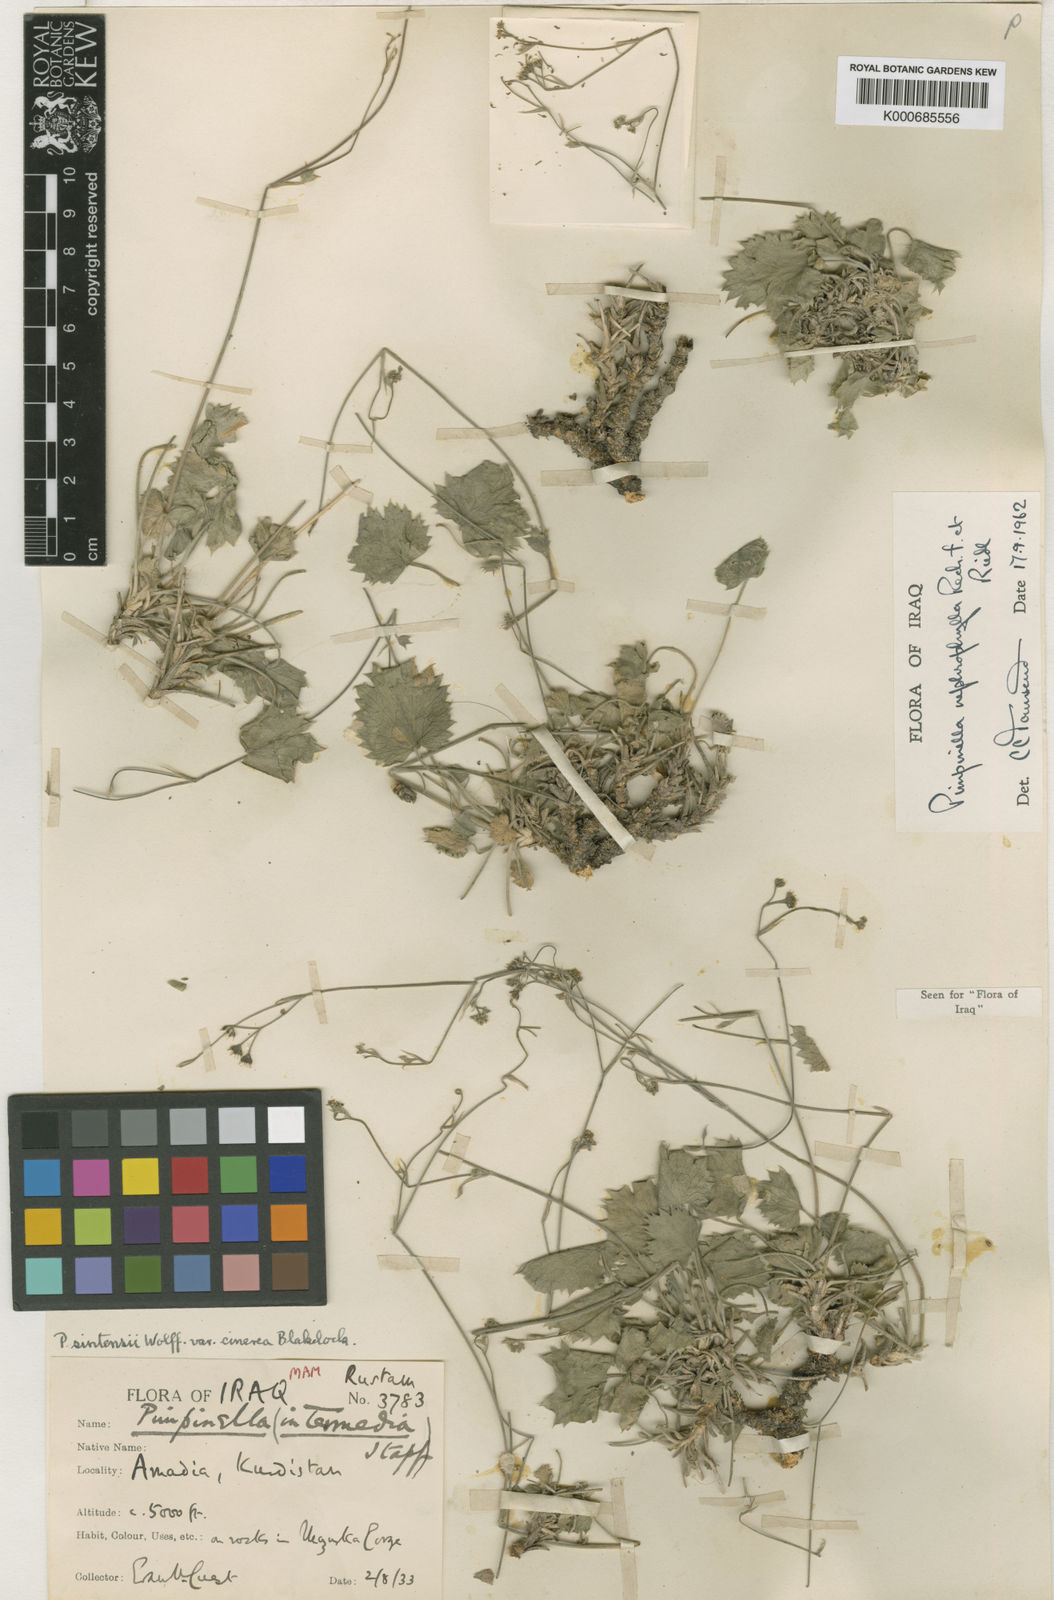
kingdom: Plantae
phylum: Tracheophyta
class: Magnoliopsida
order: Apiales
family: Apiaceae
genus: Pimpinella
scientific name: Pimpinella nephrophylla
